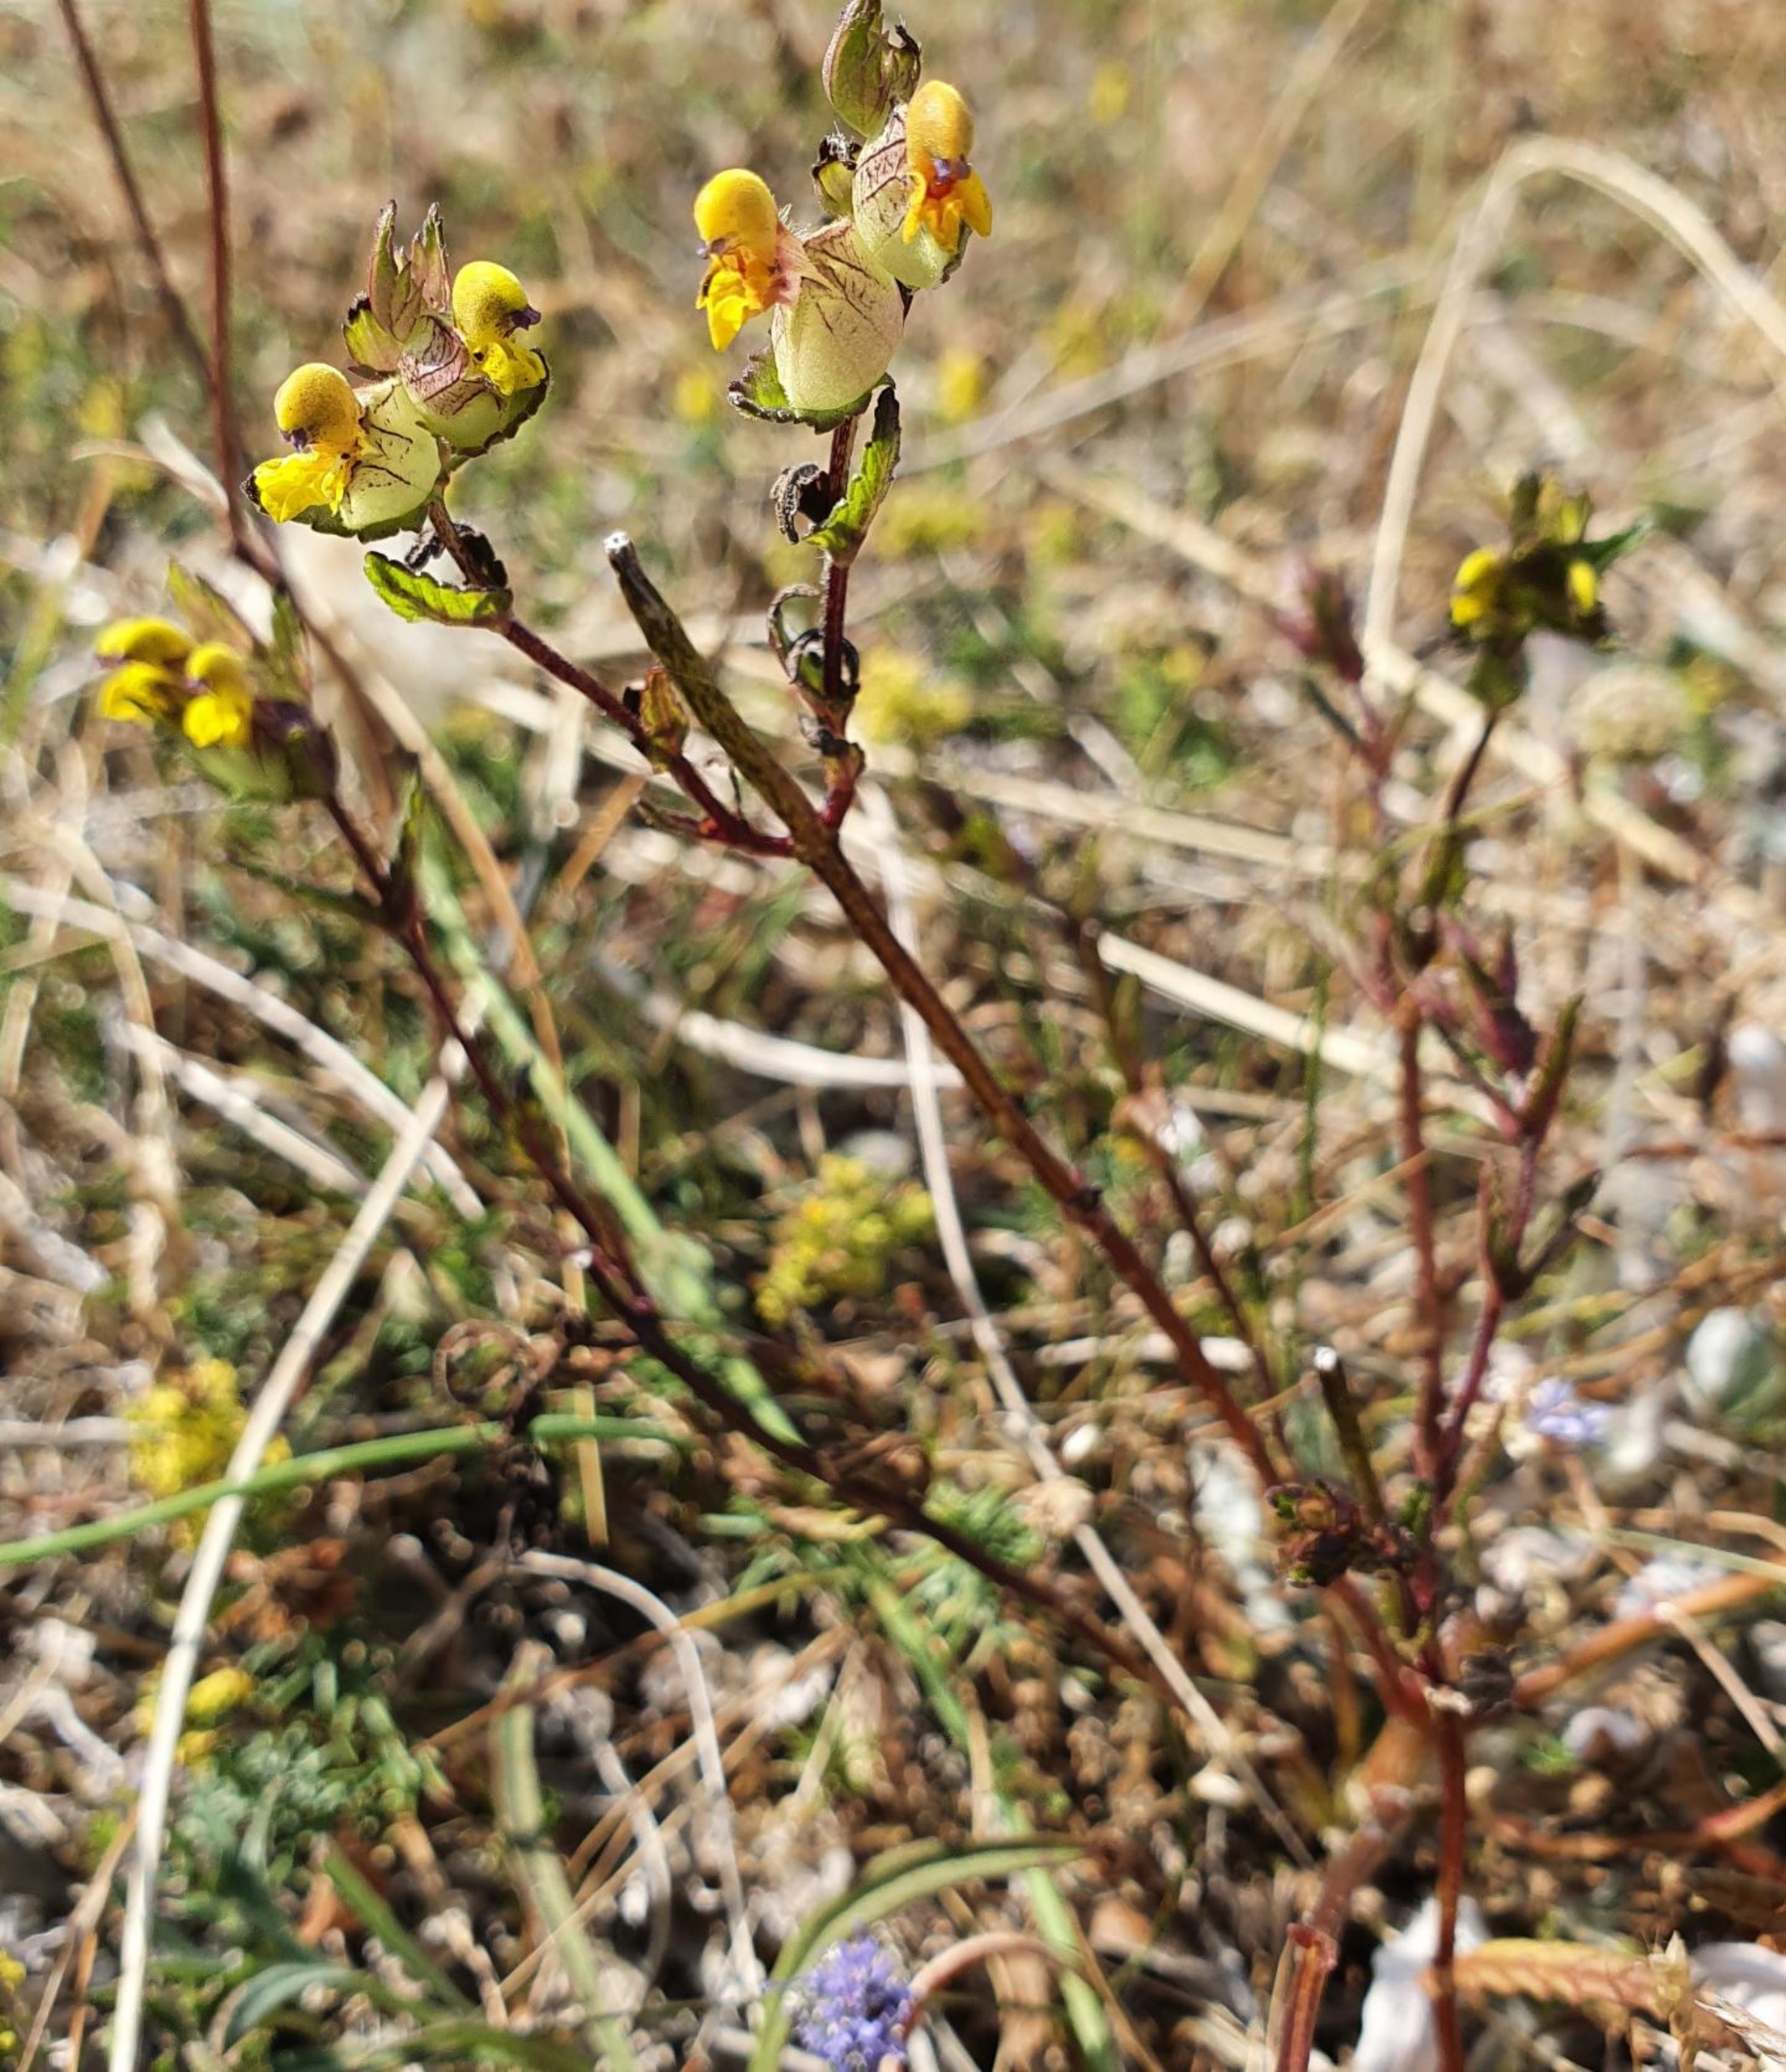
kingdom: Plantae
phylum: Tracheophyta
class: Magnoliopsida
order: Lamiales
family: Orobanchaceae
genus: Rhinanthus
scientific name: Rhinanthus
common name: Stor skjaller
